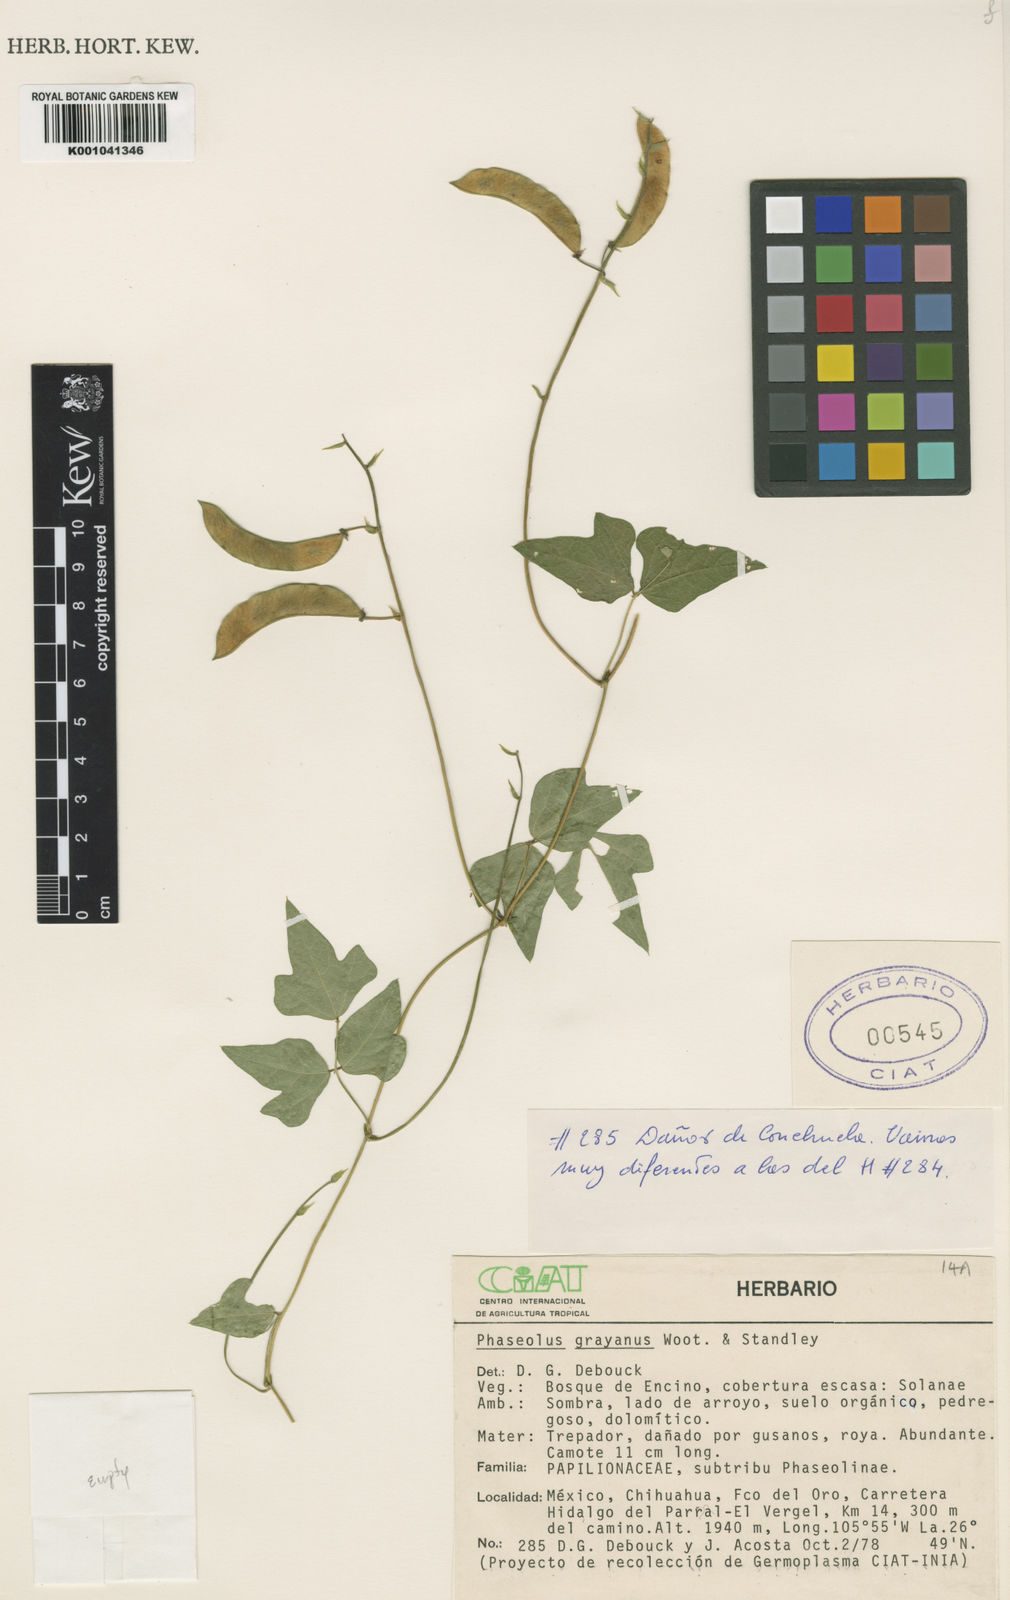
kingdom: Plantae
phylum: Tracheophyta
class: Magnoliopsida
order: Fabales
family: Fabaceae
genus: Phaseolus
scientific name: Phaseolus pedicellatus
